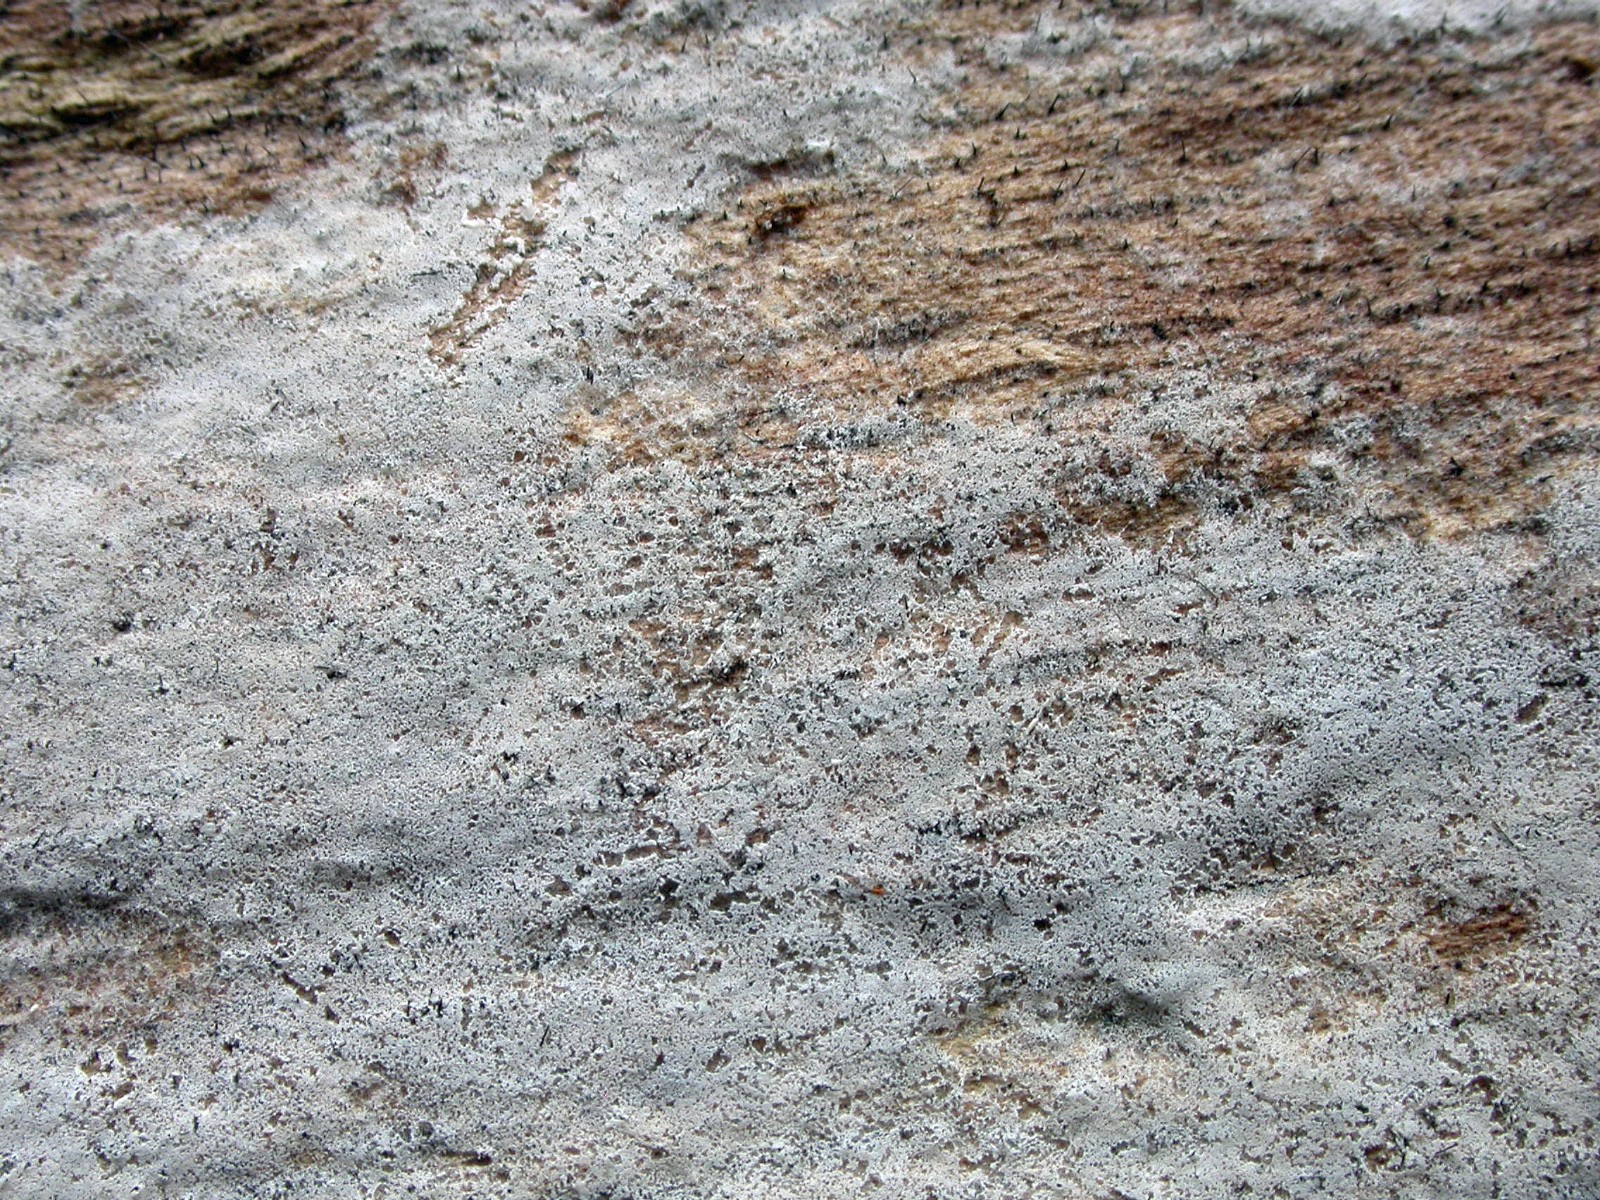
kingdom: Fungi
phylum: Basidiomycota
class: Agaricomycetes
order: Atheliales
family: Atheliaceae
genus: Athelia
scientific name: Athelia neuhoffii
